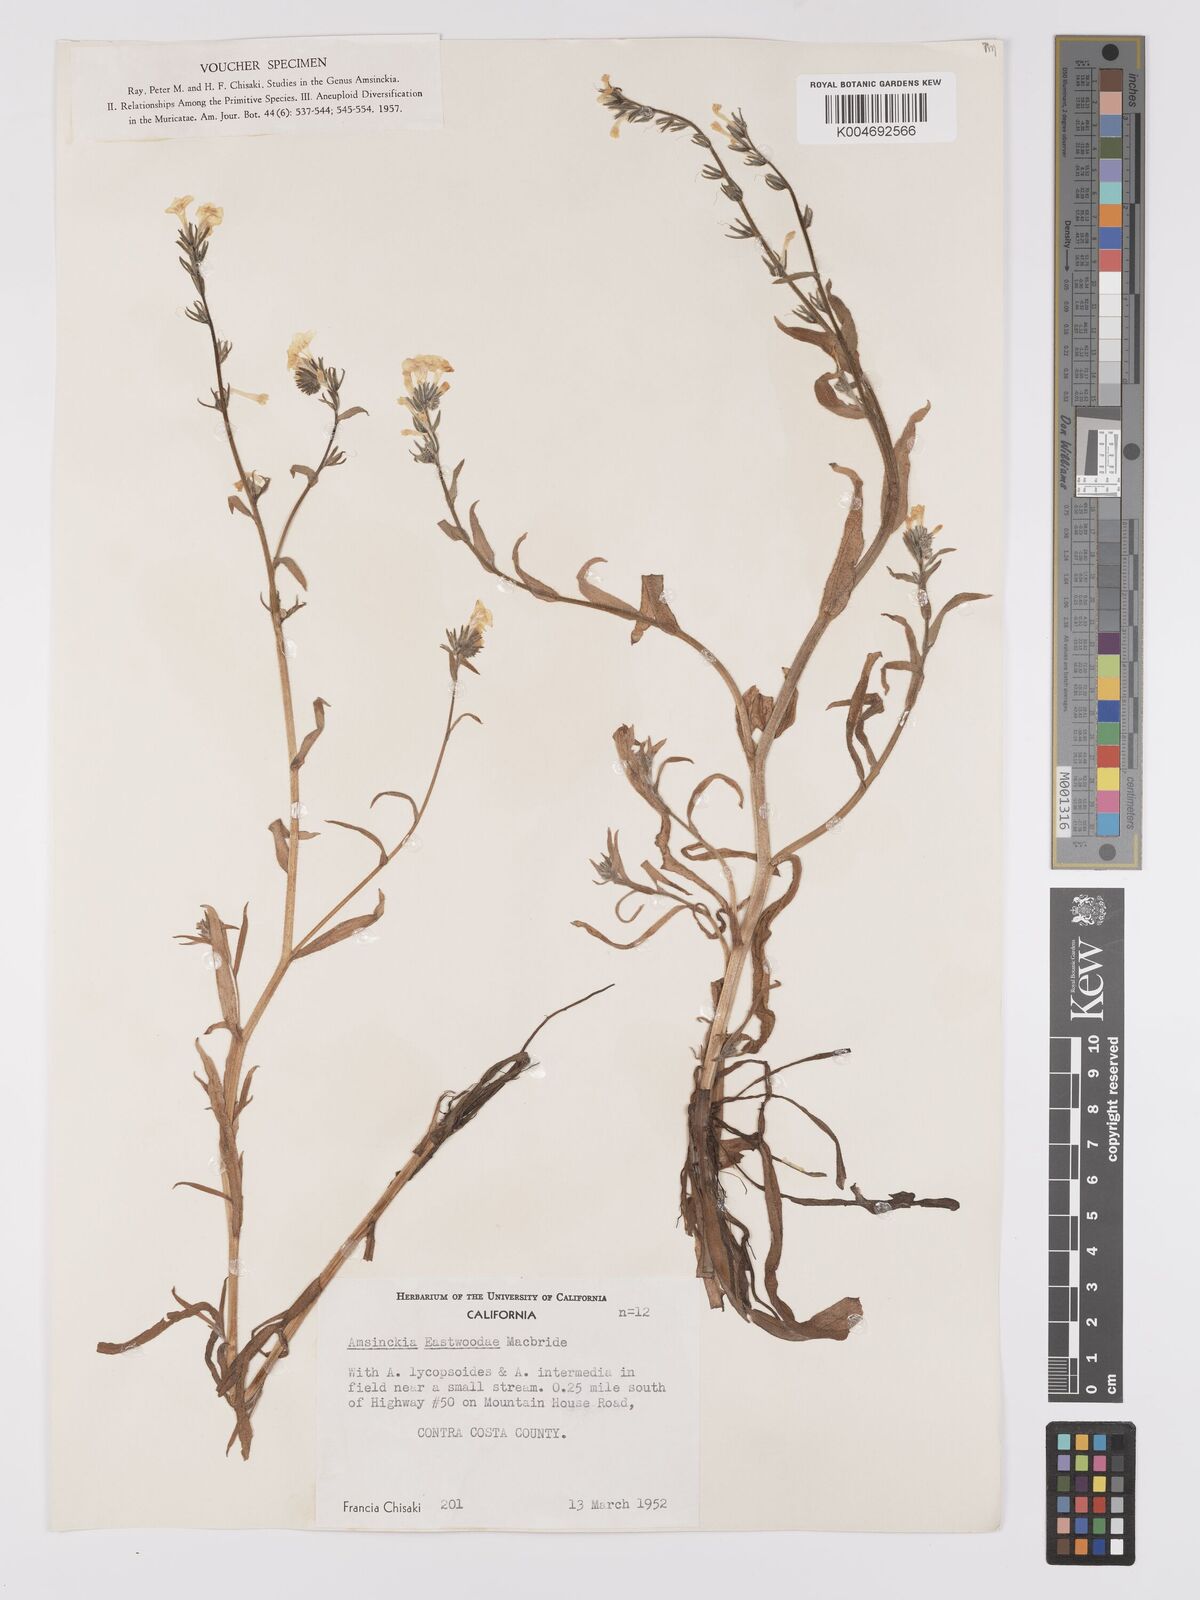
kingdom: Plantae
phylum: Tracheophyta
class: Magnoliopsida
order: Boraginales
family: Boraginaceae
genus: Amsinckia
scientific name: Amsinckia eastwoodiae
